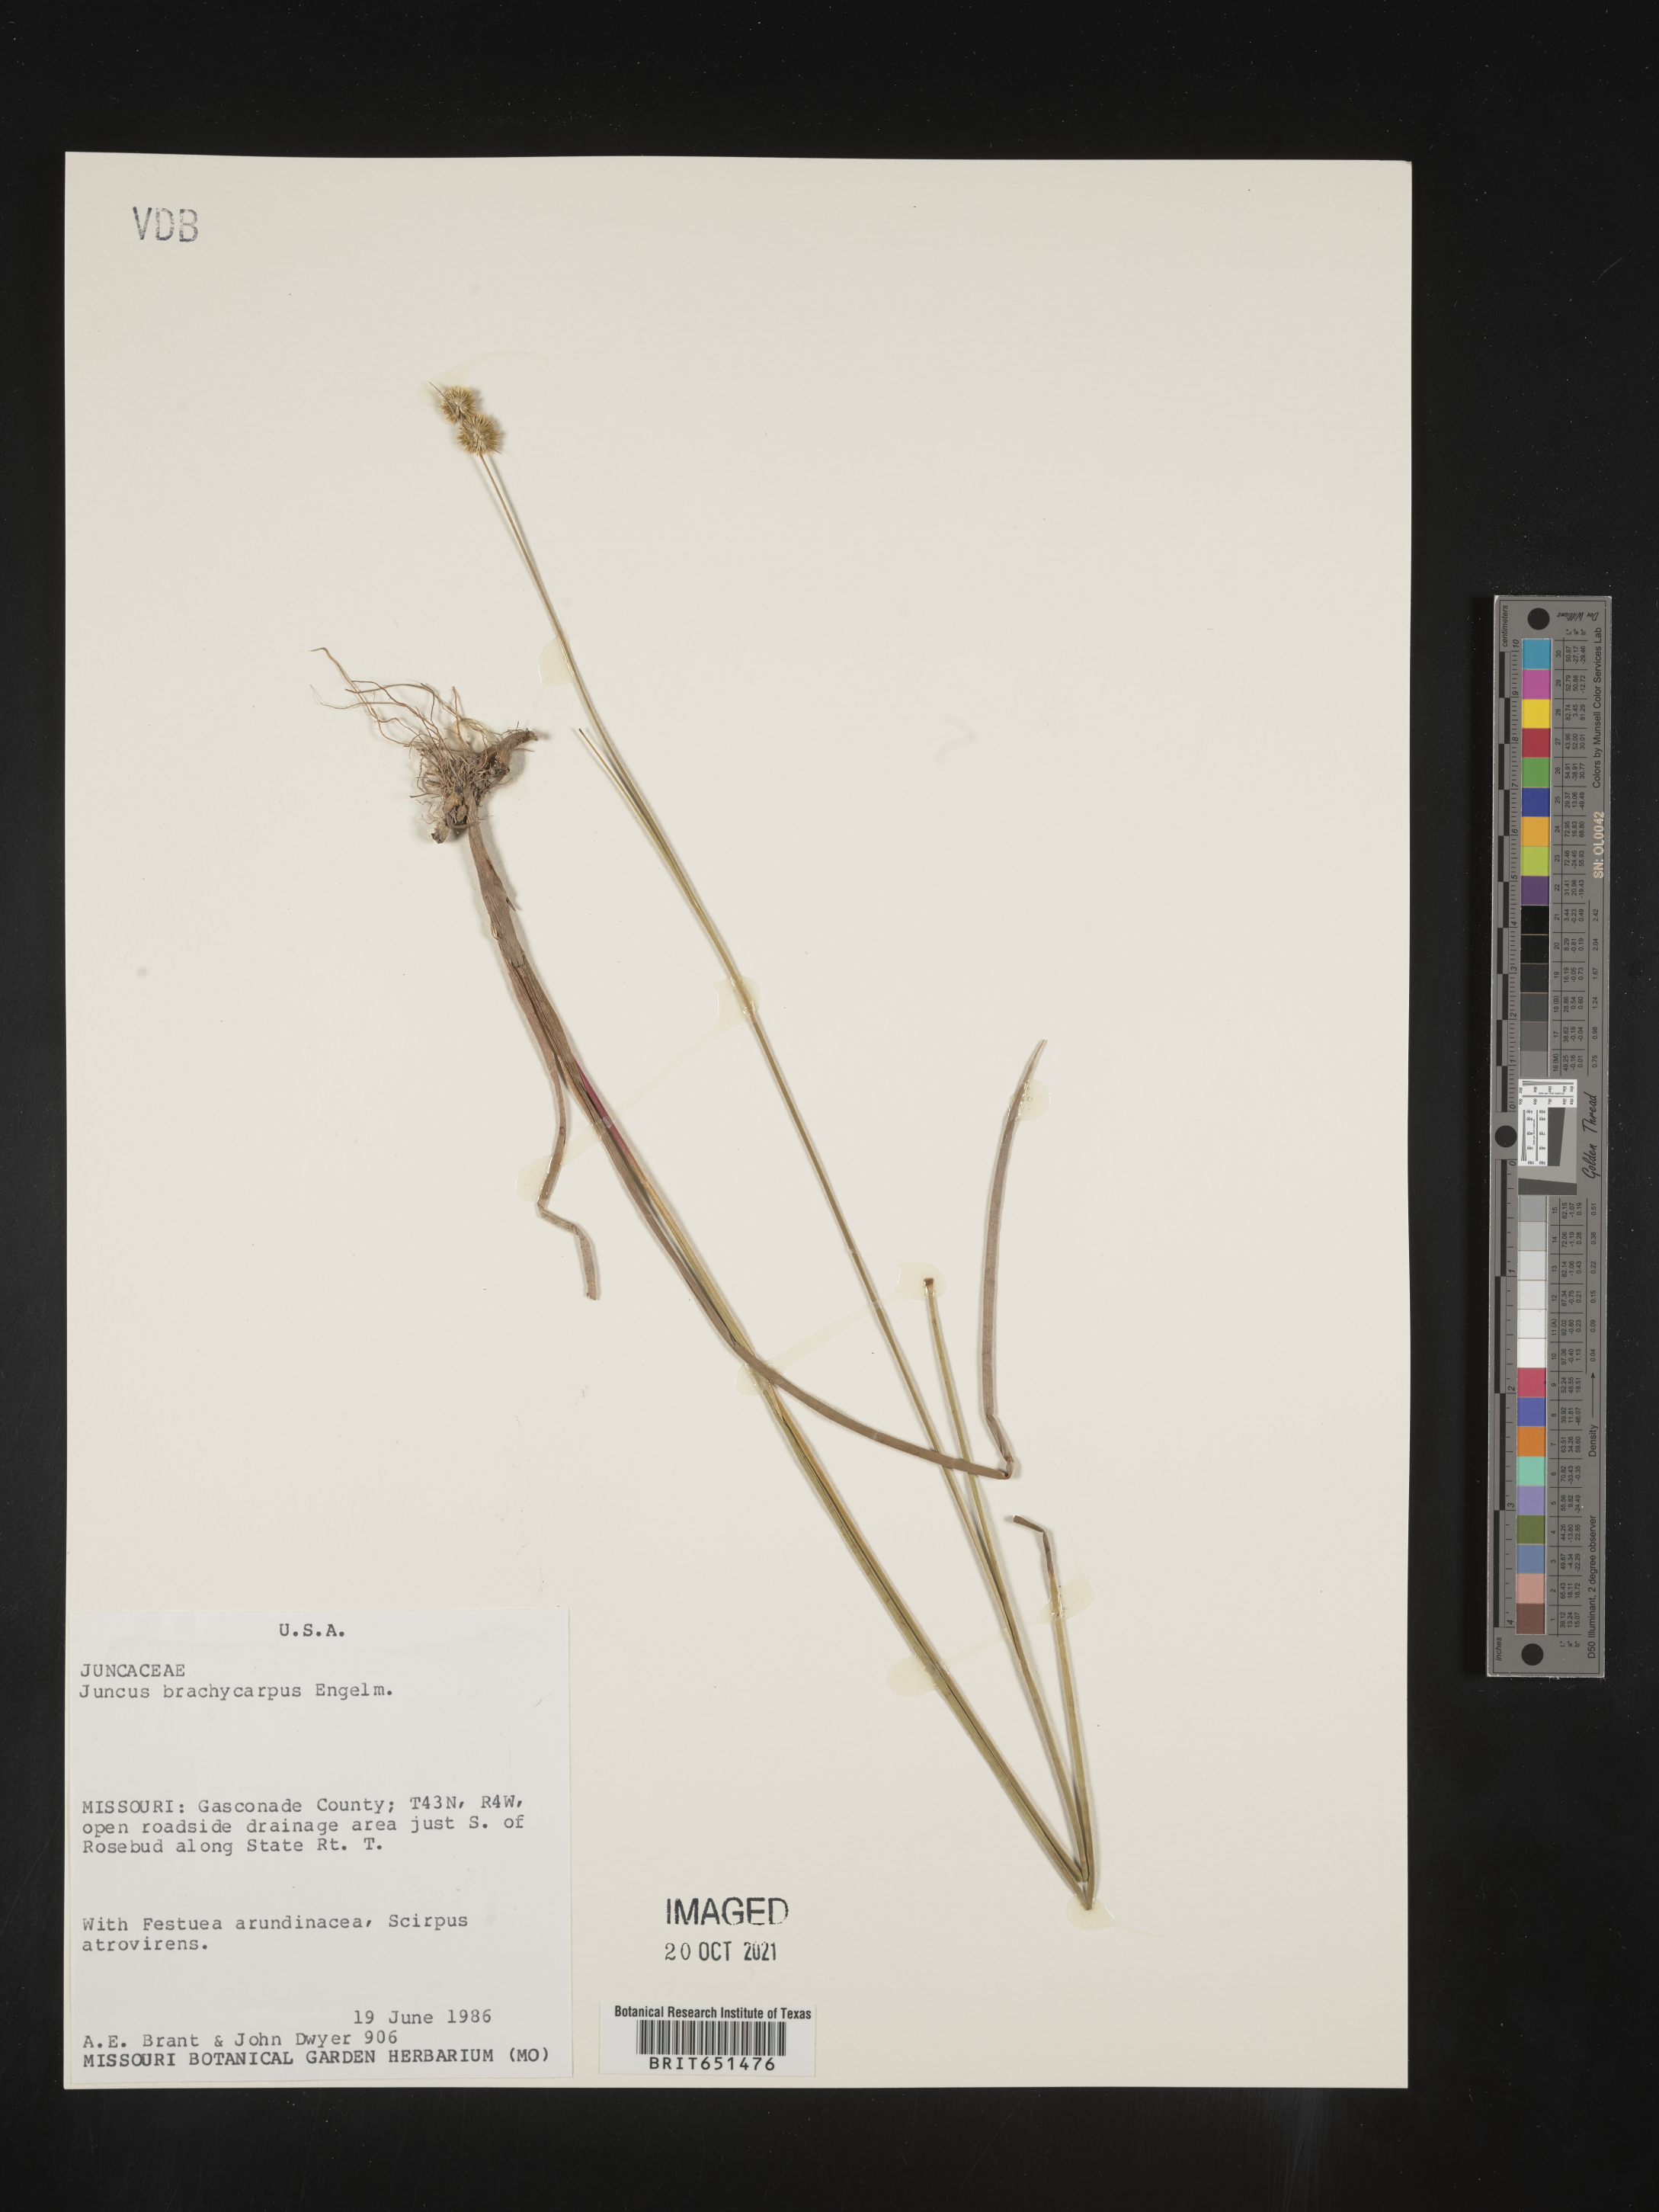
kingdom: Plantae
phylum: Tracheophyta
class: Liliopsida
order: Poales
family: Juncaceae
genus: Juncus
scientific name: Juncus brachycarpus
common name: Shore rush
